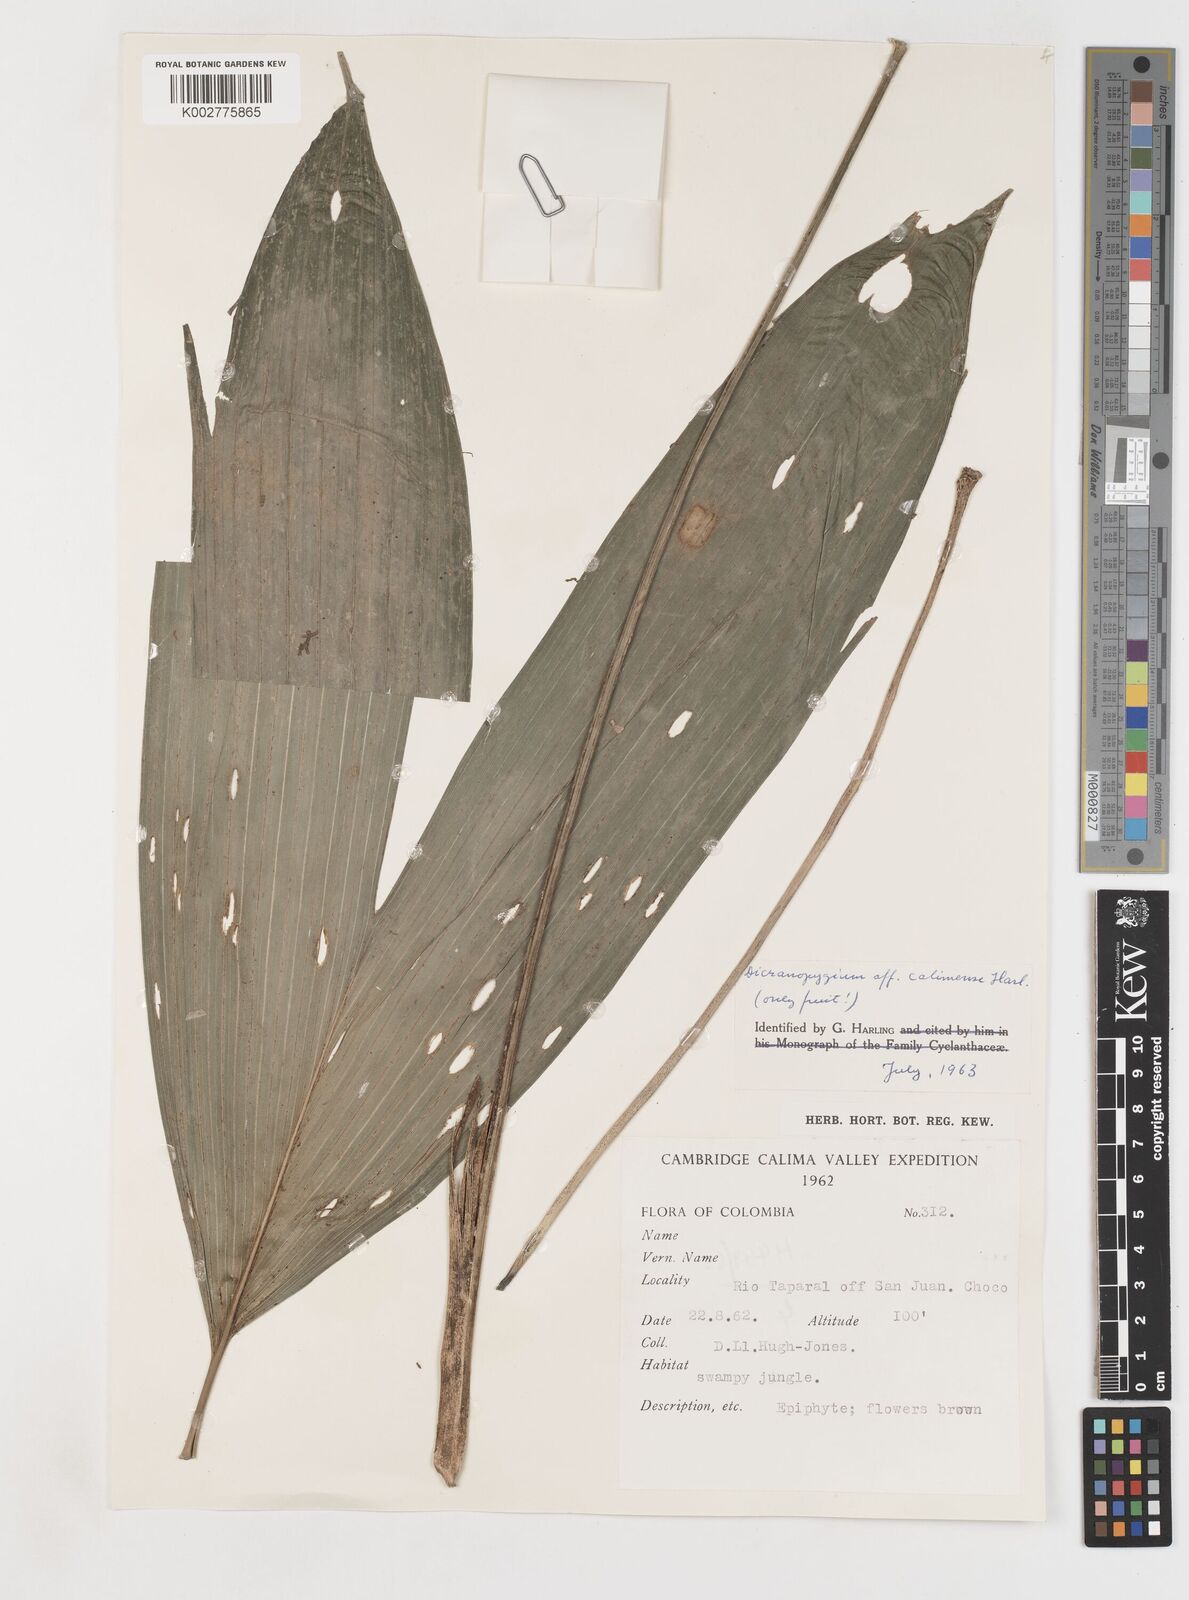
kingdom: Plantae
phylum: Tracheophyta
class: Liliopsida
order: Pandanales
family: Cyclanthaceae
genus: Dicranopygium
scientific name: Dicranopygium calimense
